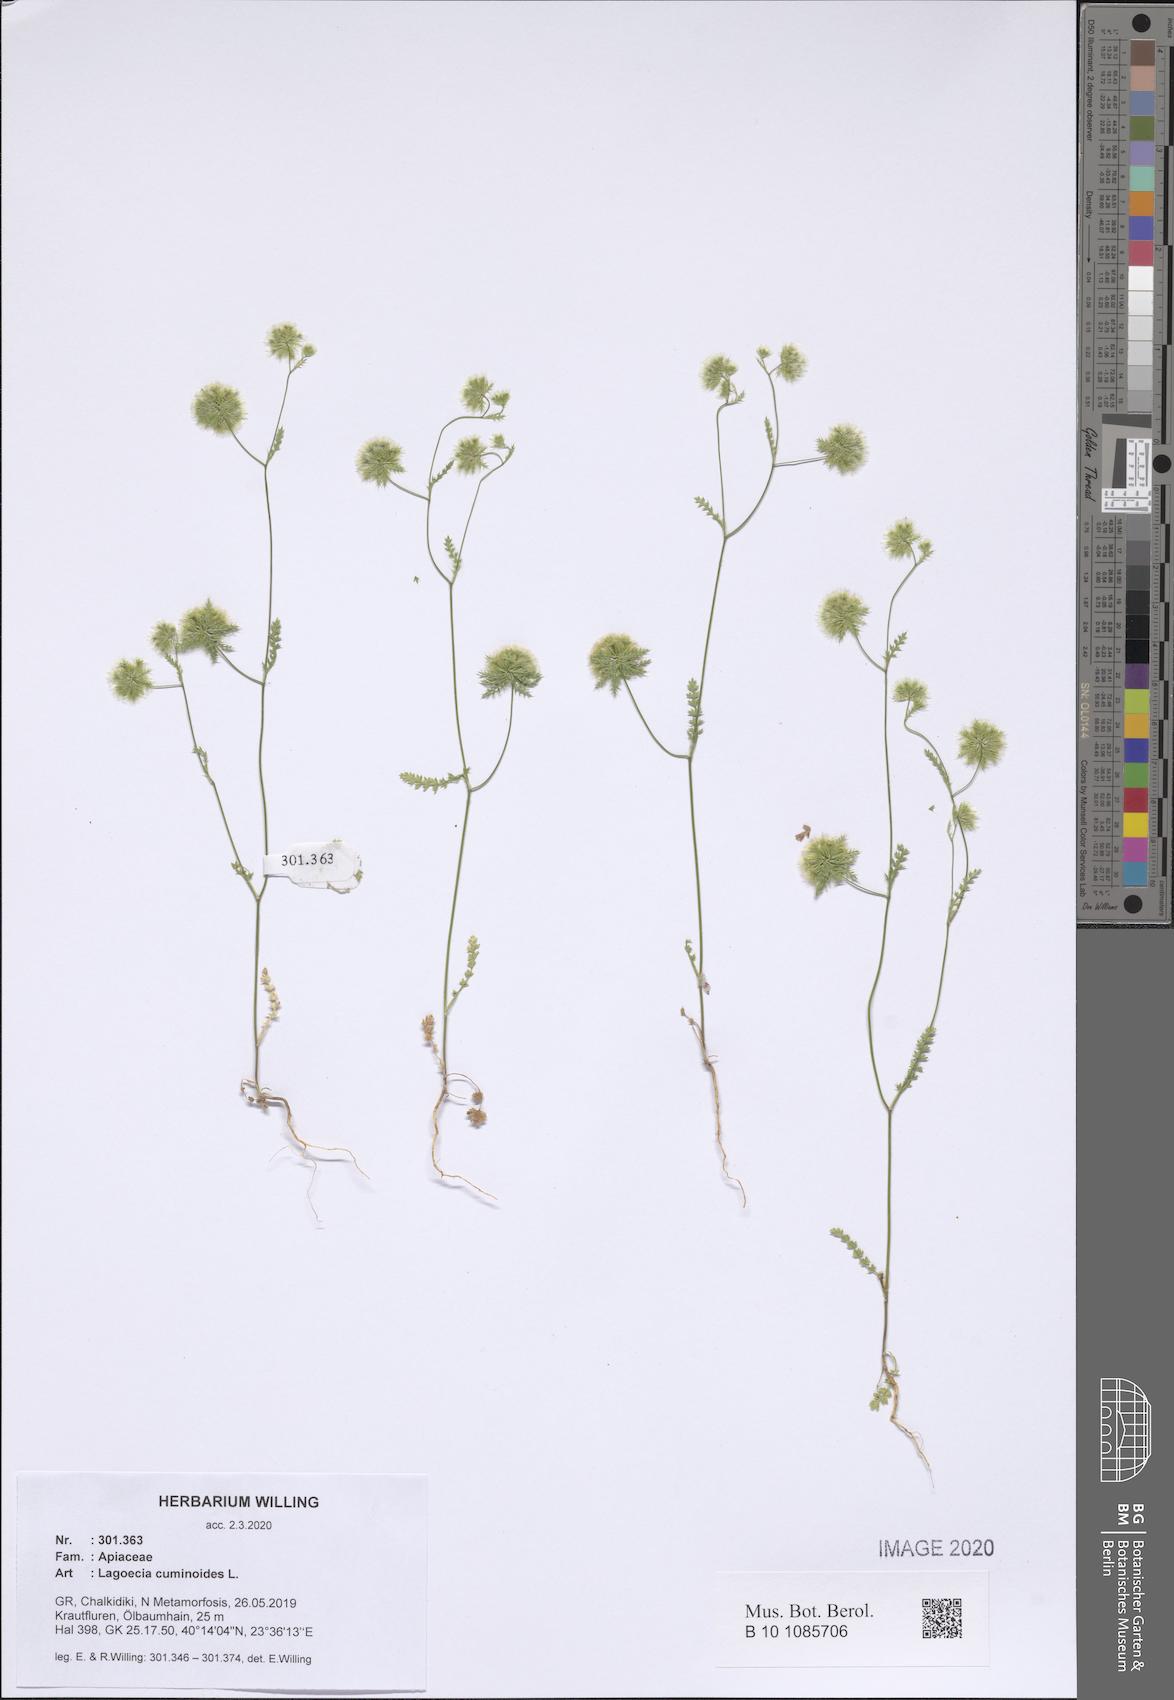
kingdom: Plantae
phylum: Tracheophyta
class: Magnoliopsida
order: Apiales
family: Apiaceae
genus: Lagoecia
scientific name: Lagoecia cuminoides
